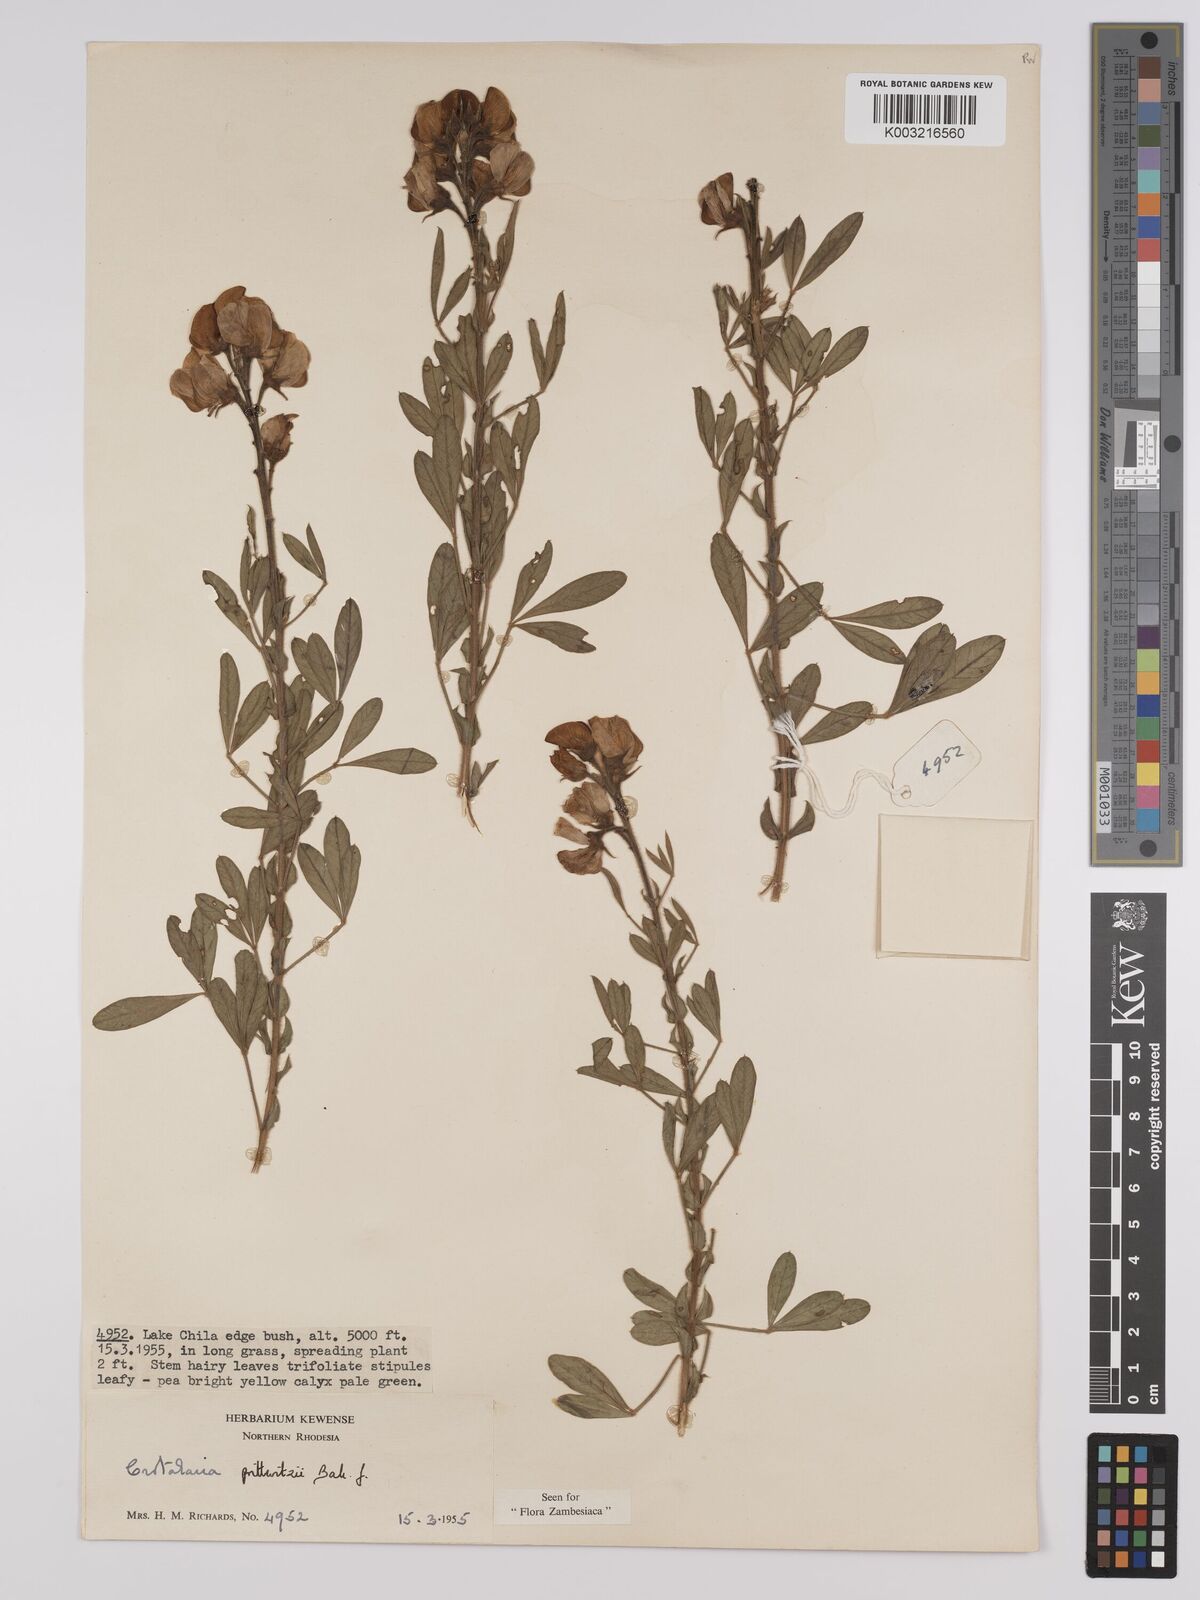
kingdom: Plantae
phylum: Tracheophyta
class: Magnoliopsida
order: Fabales
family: Fabaceae
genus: Crotalaria
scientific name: Crotalaria prittwitzii
